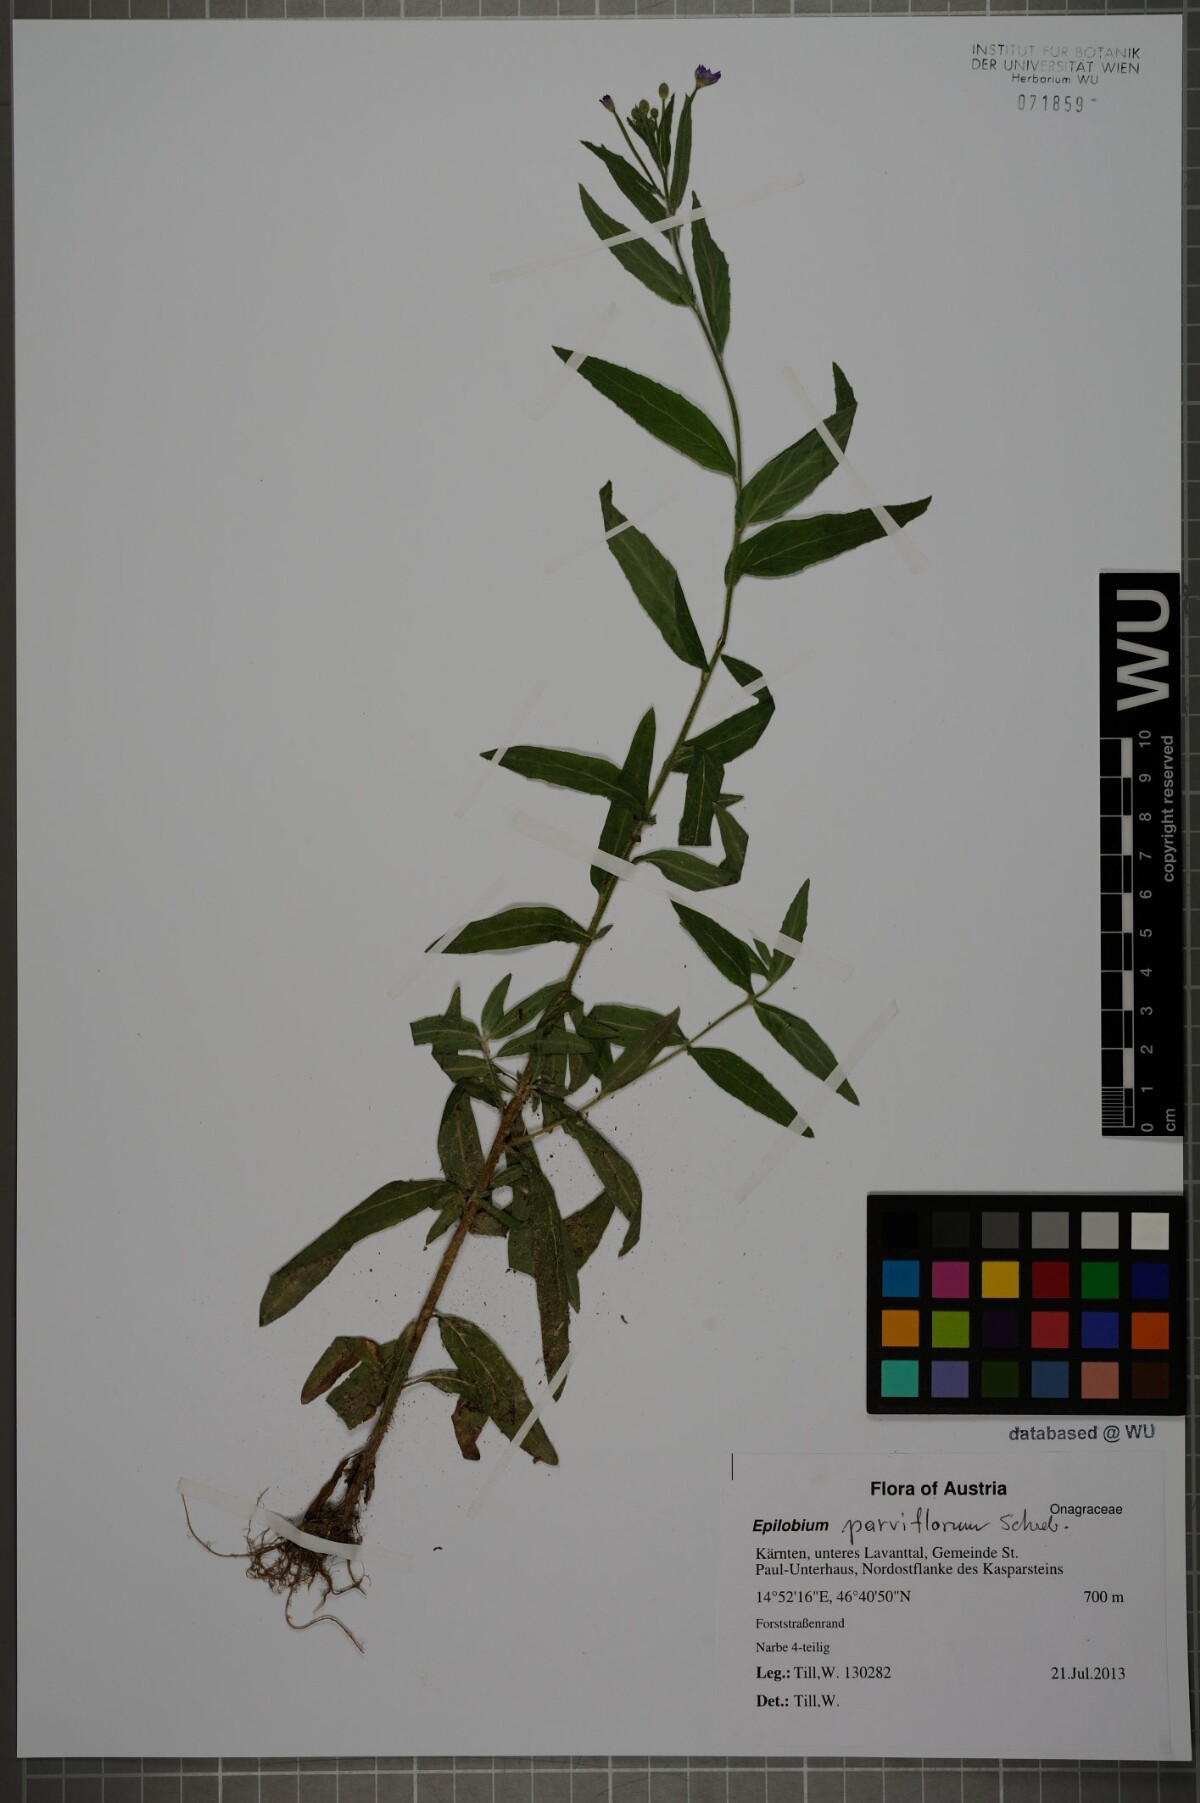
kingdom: Plantae
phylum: Tracheophyta
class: Magnoliopsida
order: Myrtales
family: Onagraceae
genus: Epilobium
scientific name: Epilobium parviflorum
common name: Hoary willowherb
